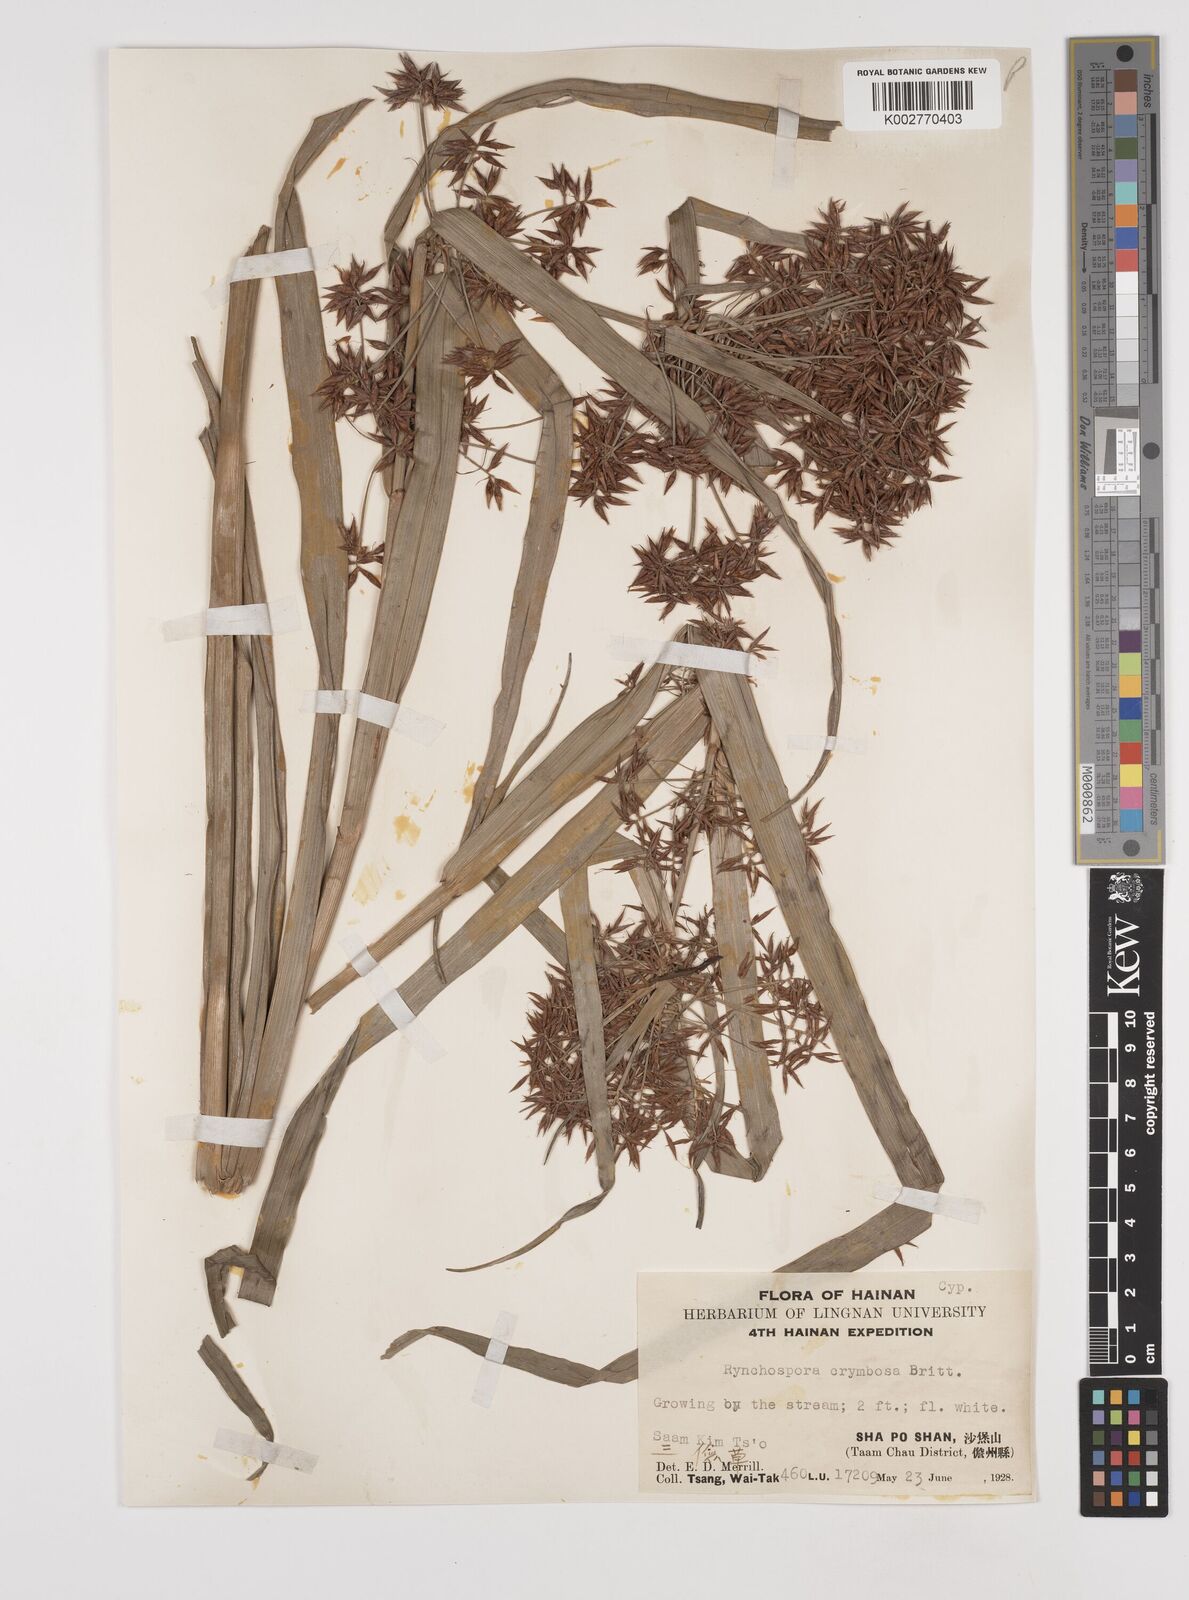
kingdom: Plantae
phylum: Tracheophyta
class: Liliopsida
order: Poales
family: Cyperaceae
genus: Rhynchospora
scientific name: Rhynchospora corymbosa
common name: Golden beak sedge
